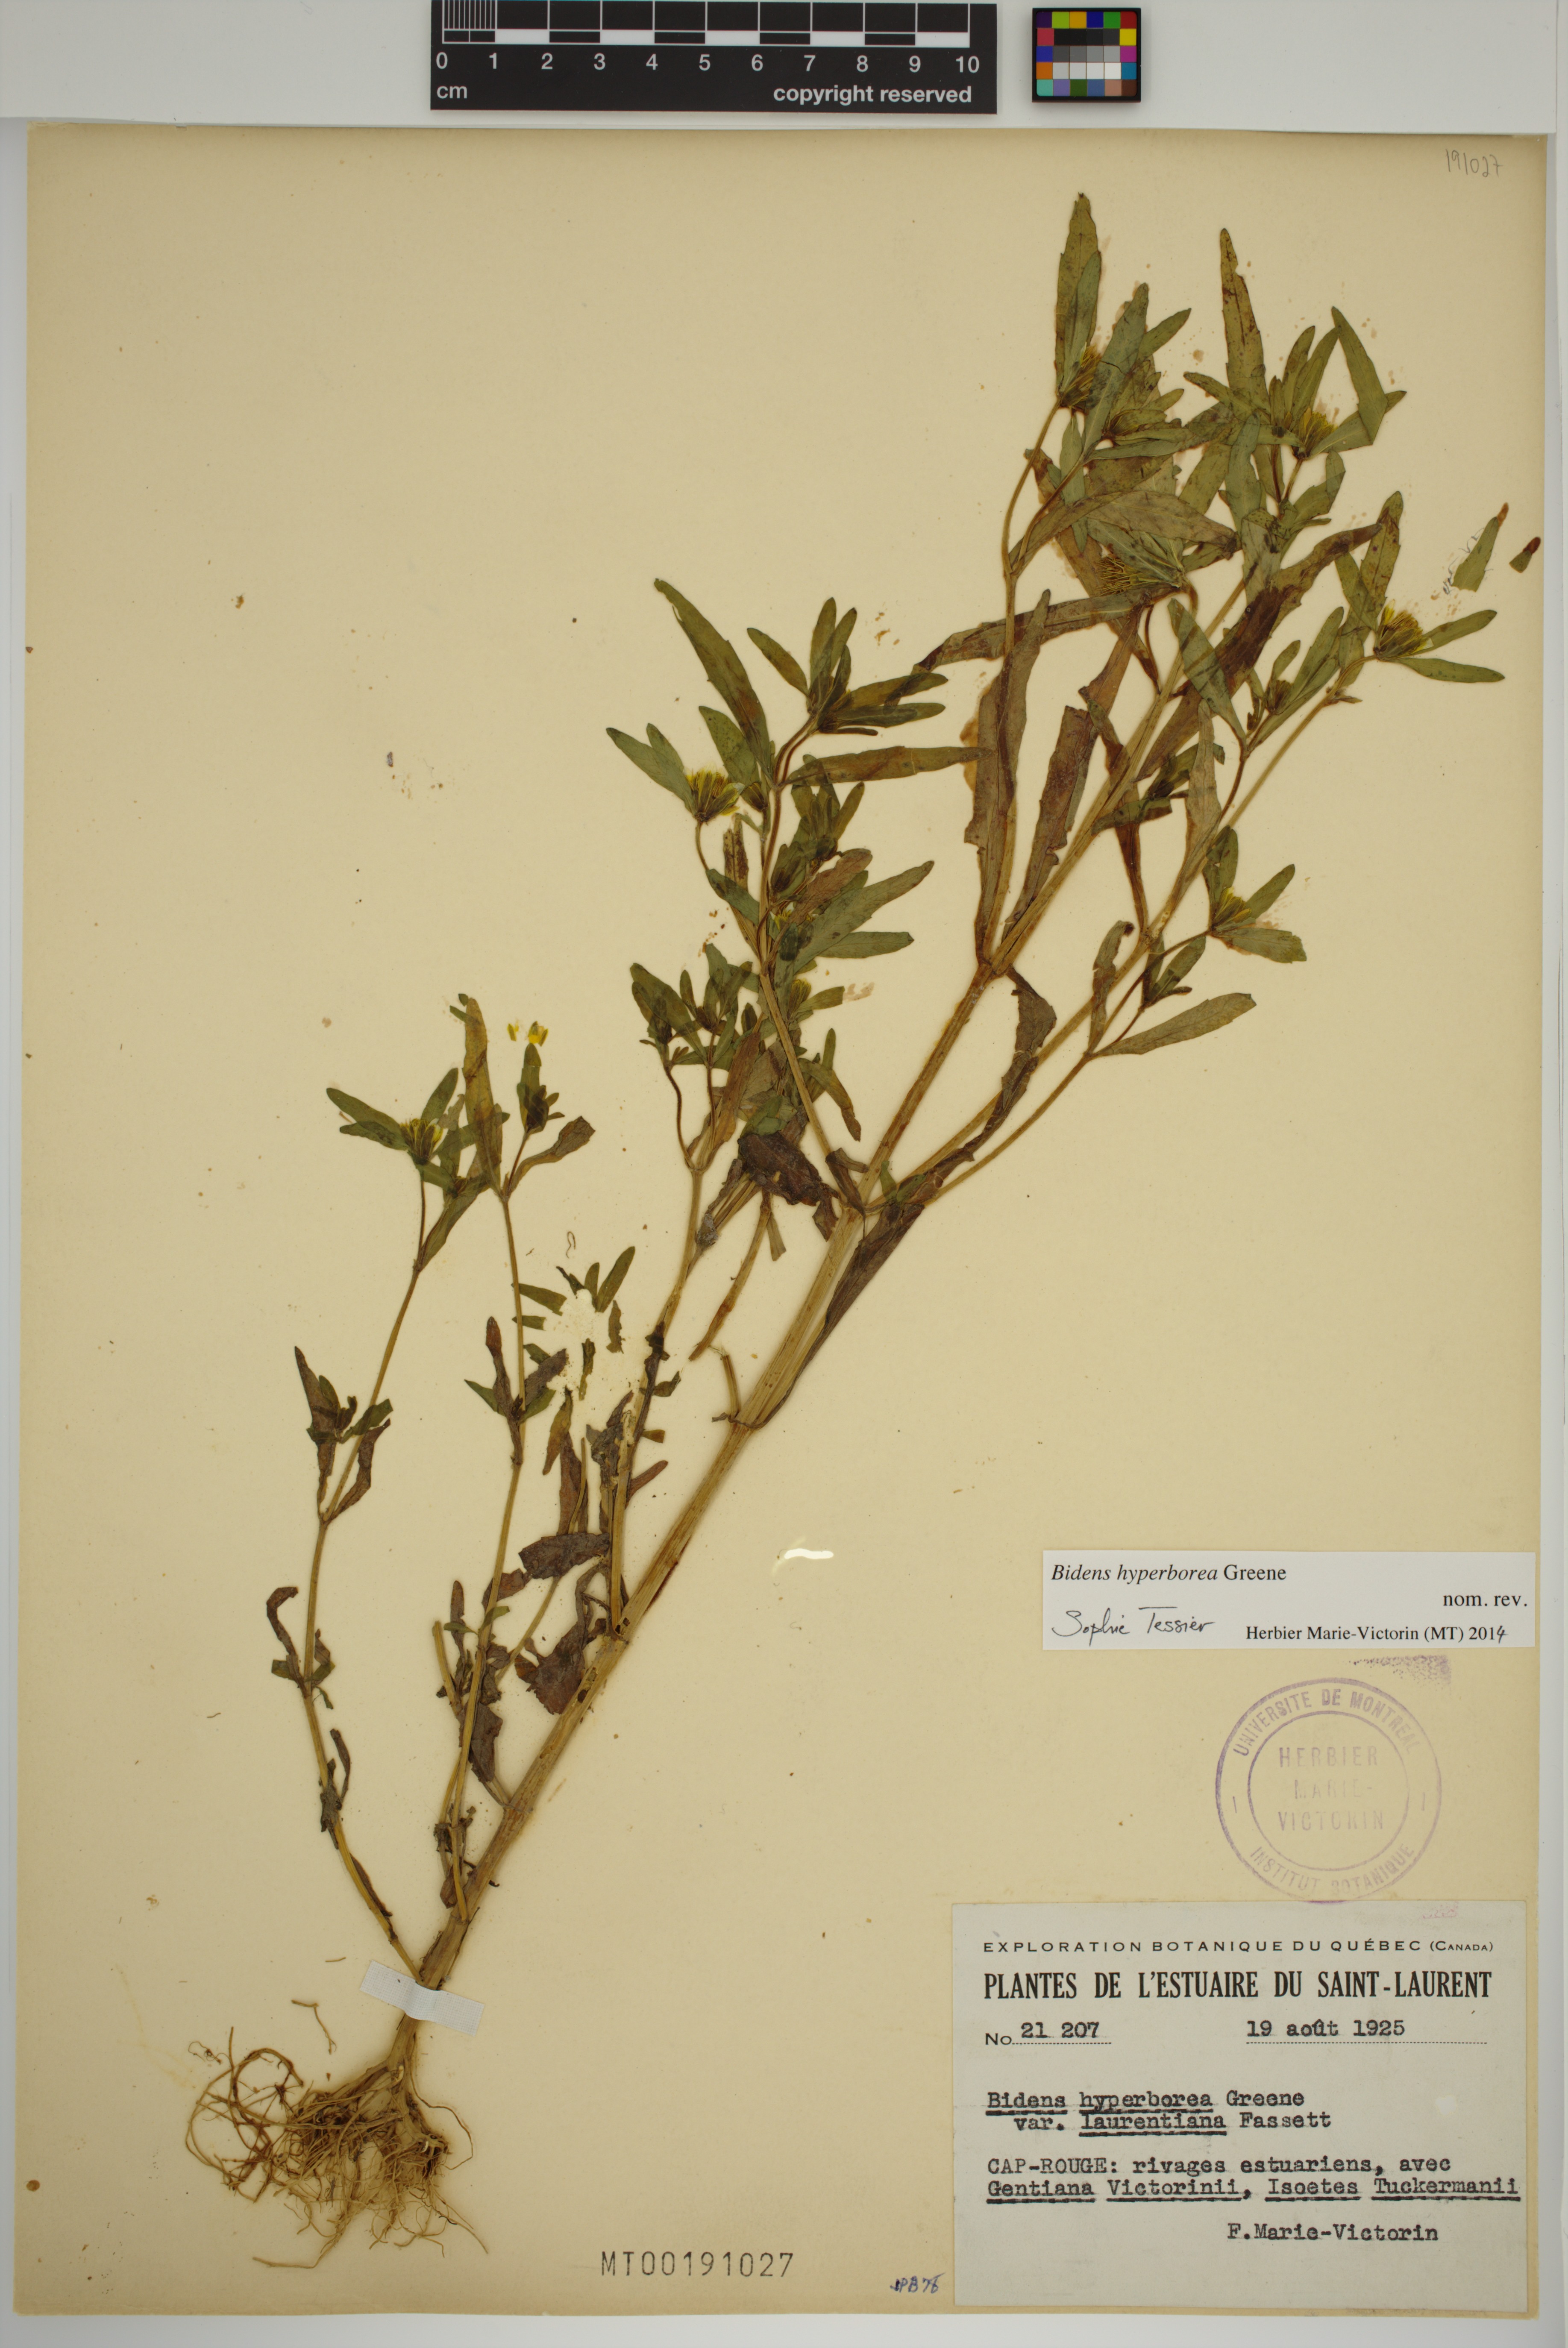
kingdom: Plantae
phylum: Tracheophyta
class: Magnoliopsida
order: Asterales
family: Asteraceae
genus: Bidens
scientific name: Bidens hyperborea
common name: Coastal beggarticks
